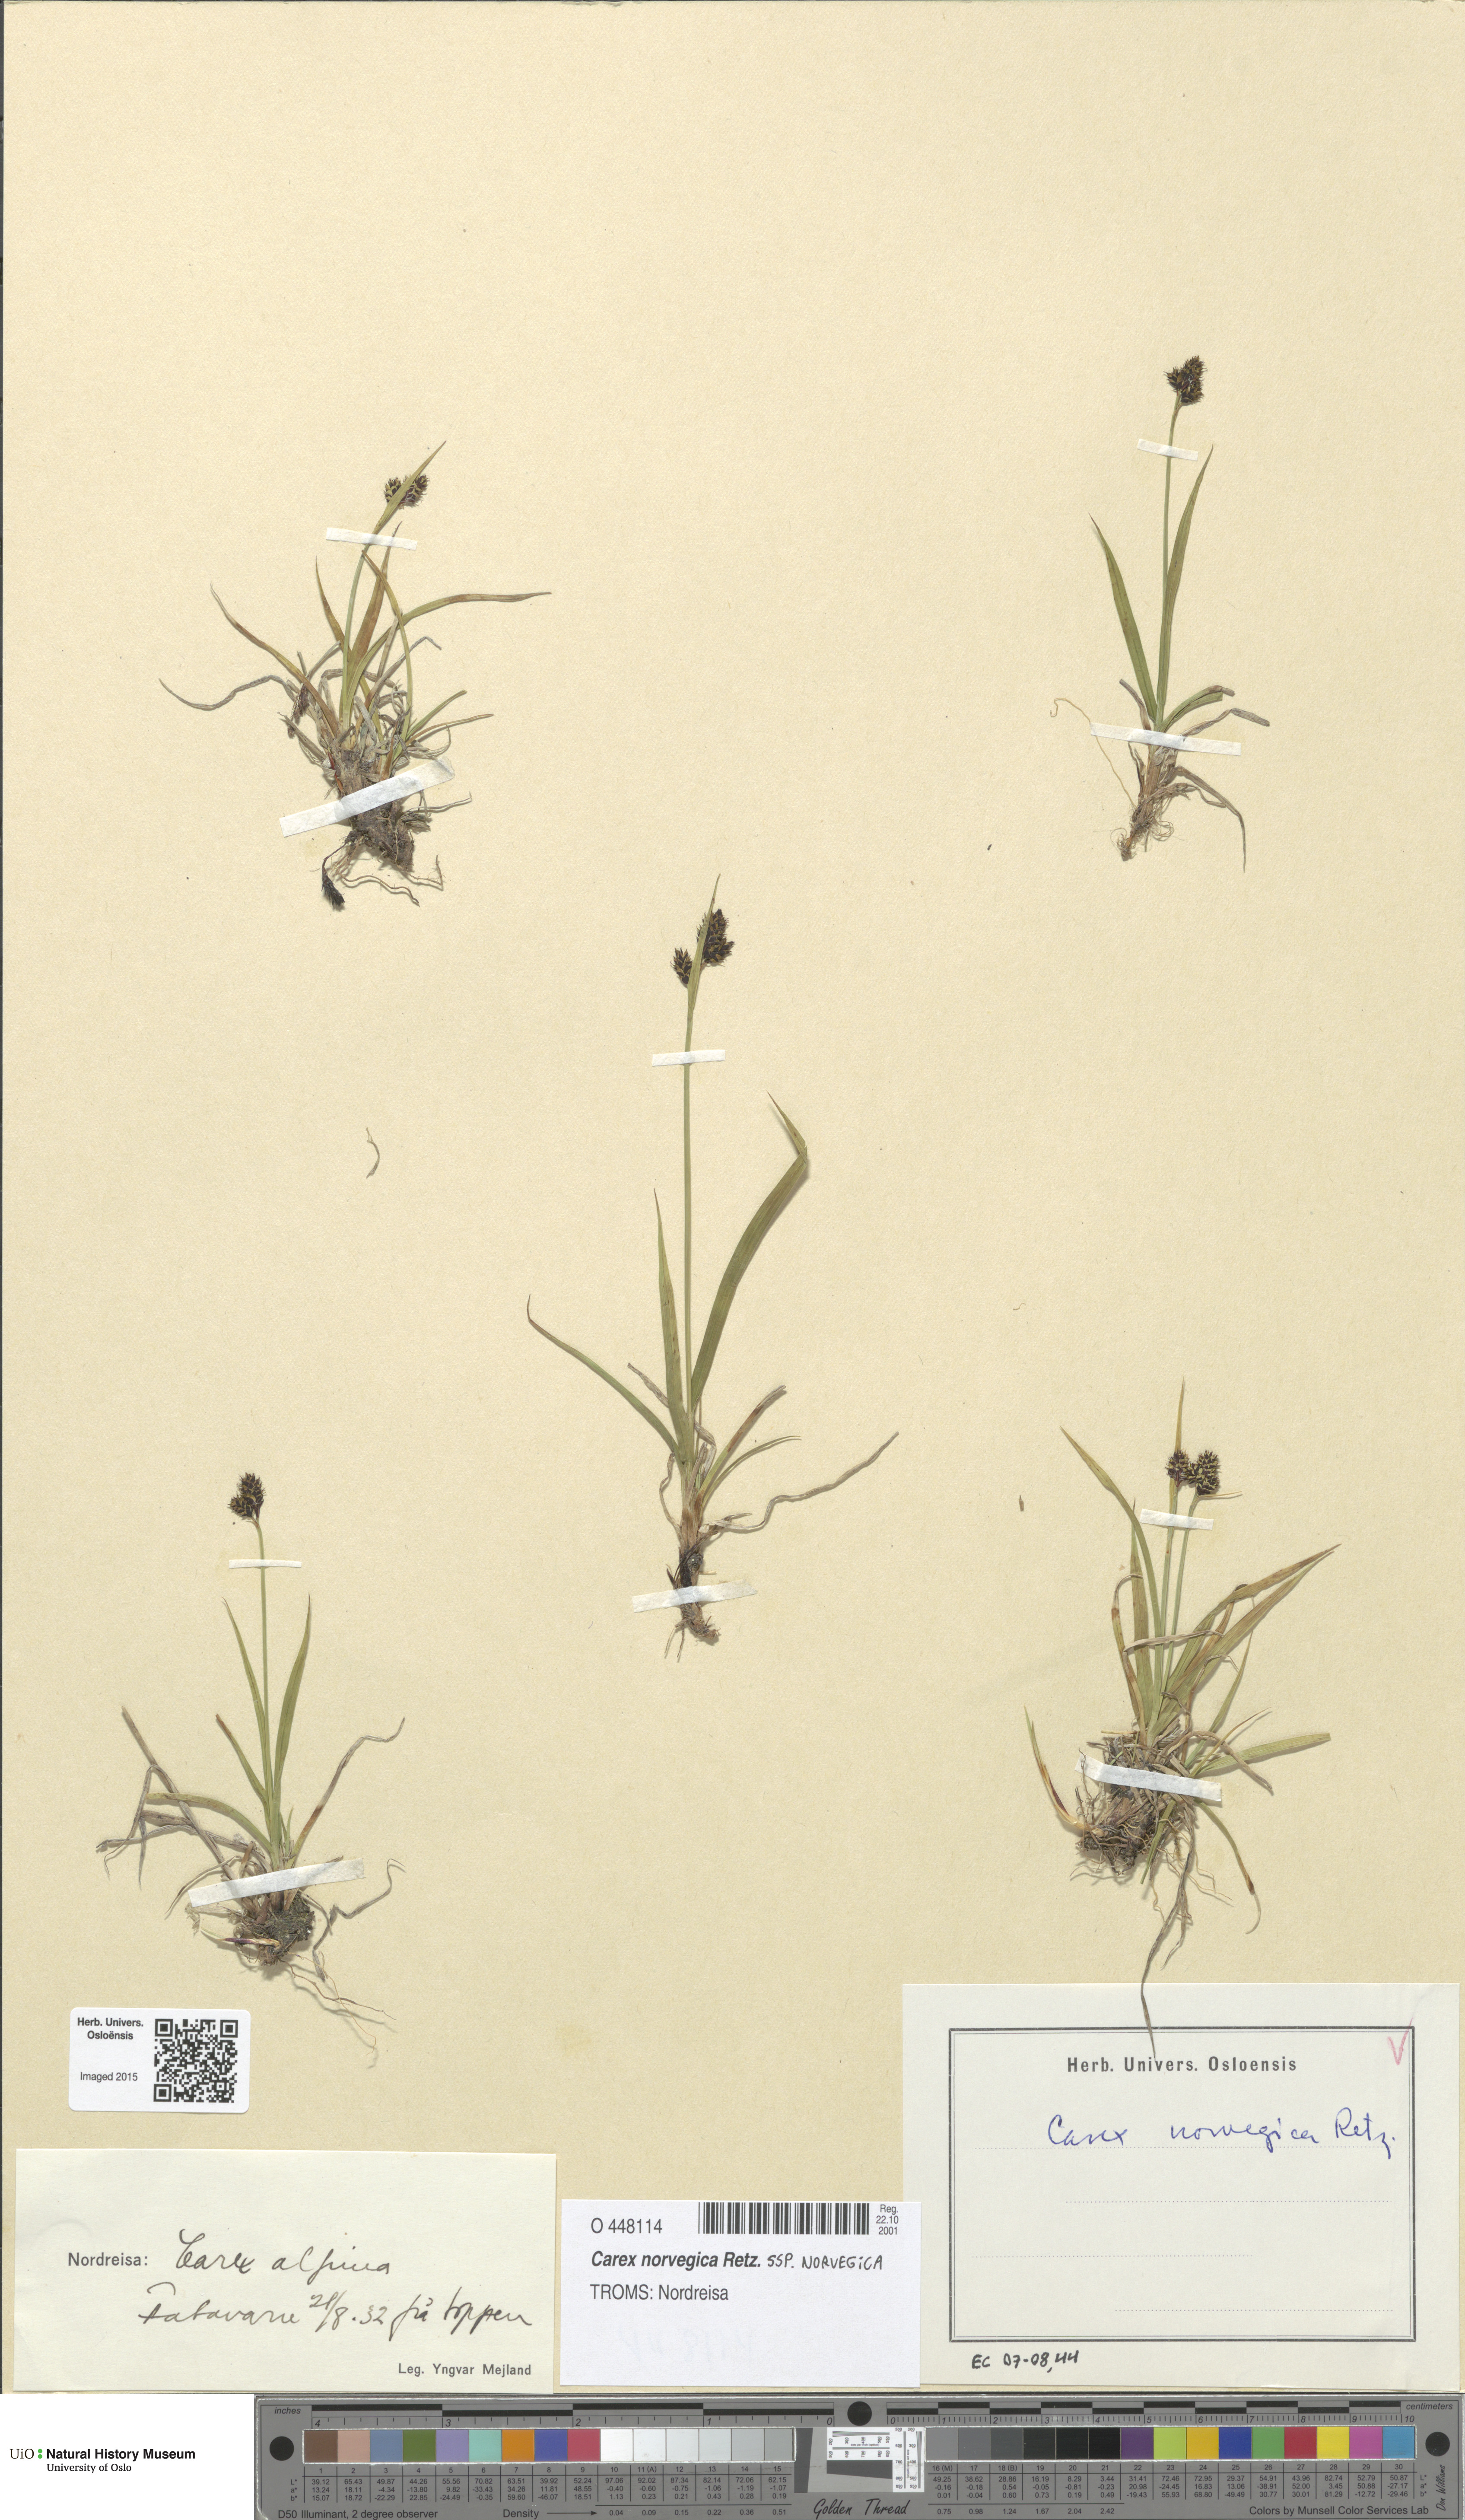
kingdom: Plantae
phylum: Tracheophyta
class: Liliopsida
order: Poales
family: Cyperaceae
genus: Carex
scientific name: Carex norvegica
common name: Close-headed alpine-sedge
